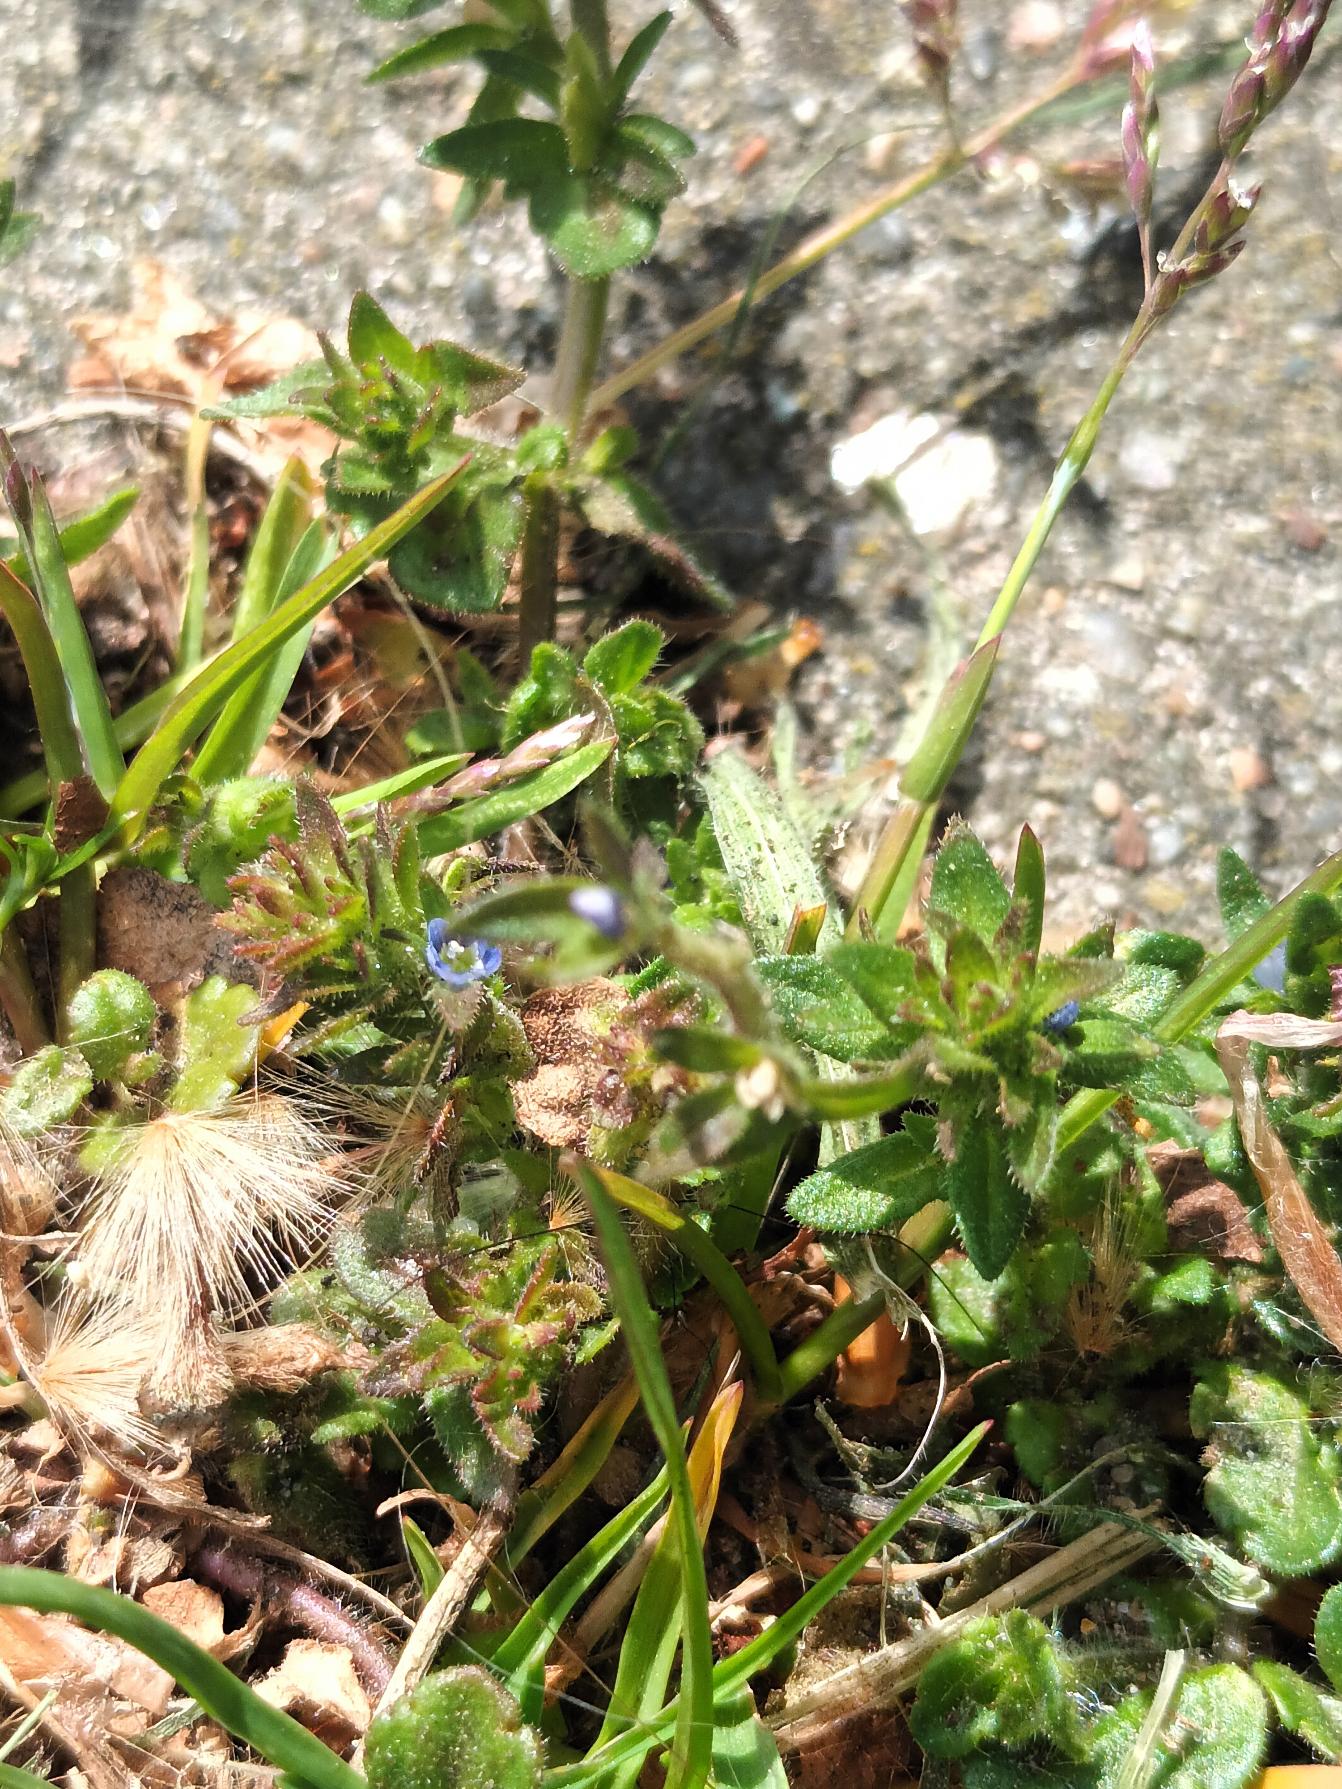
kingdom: Plantae
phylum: Tracheophyta
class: Magnoliopsida
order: Lamiales
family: Plantaginaceae
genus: Veronica
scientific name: Veronica arvensis
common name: Mark-ærenpris
